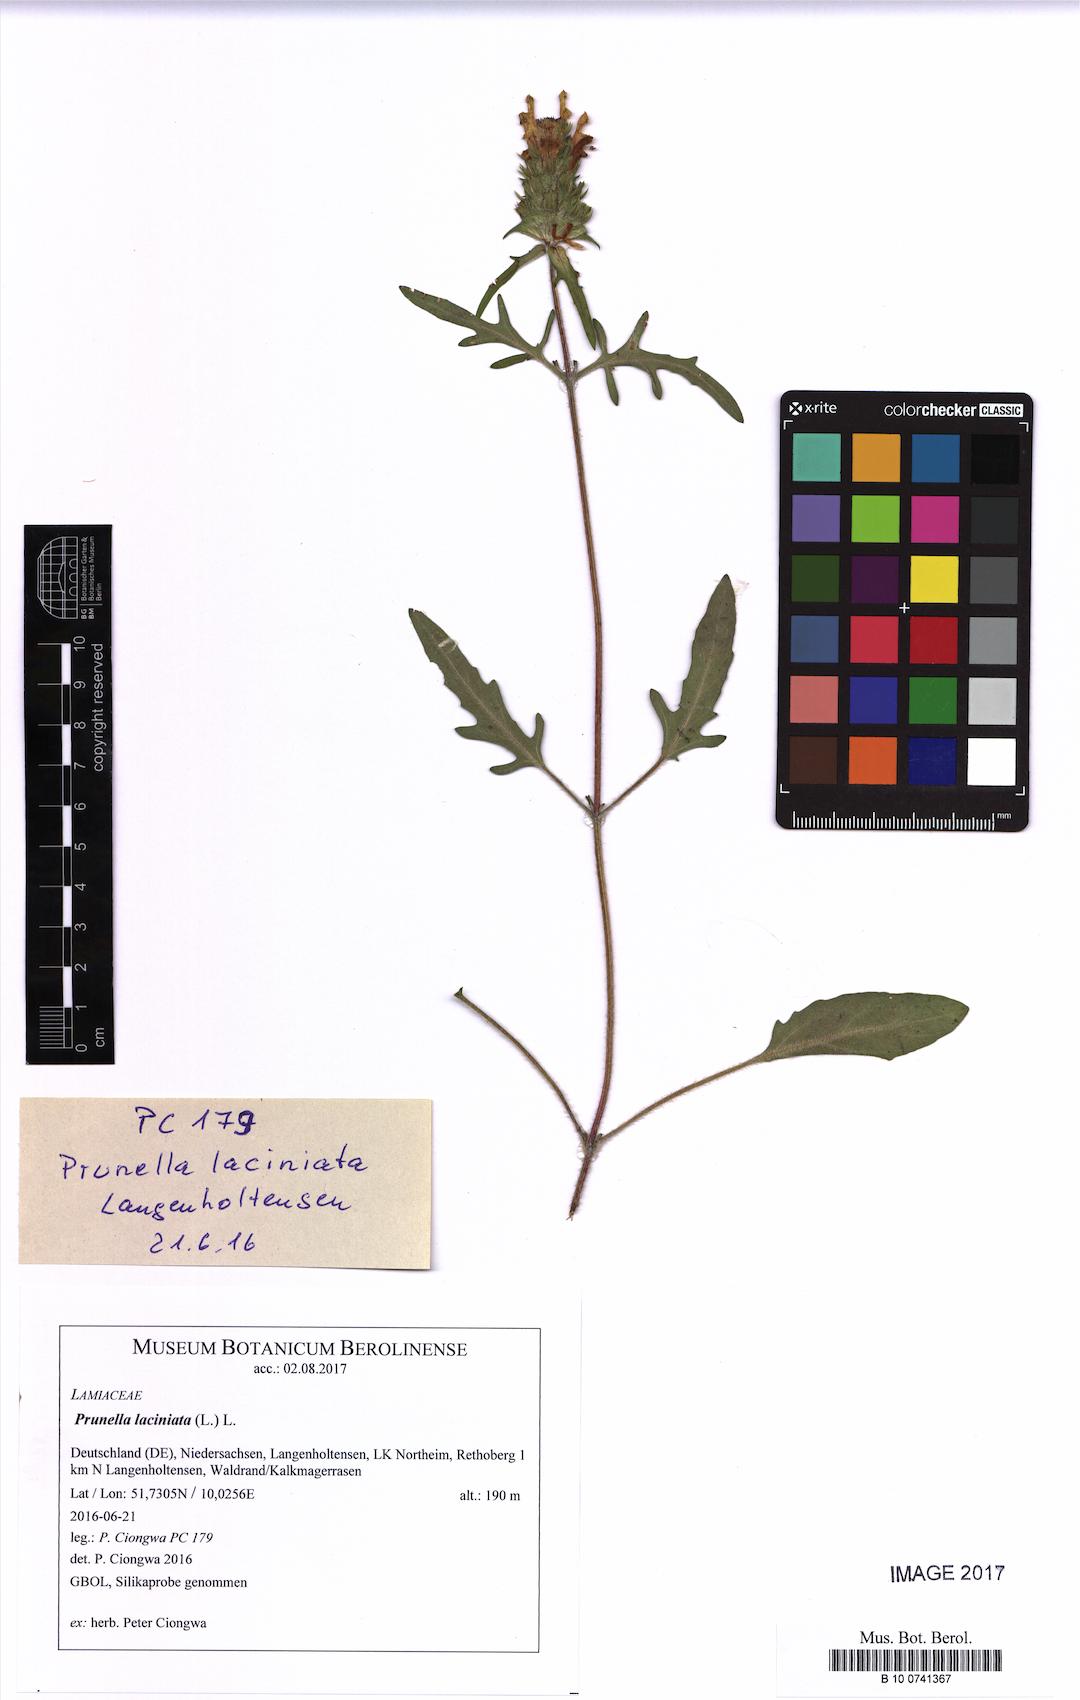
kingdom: Plantae
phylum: Tracheophyta
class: Magnoliopsida
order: Lamiales
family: Lamiaceae
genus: Prunella
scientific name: Prunella laciniata
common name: Cut-leaved selfheal
